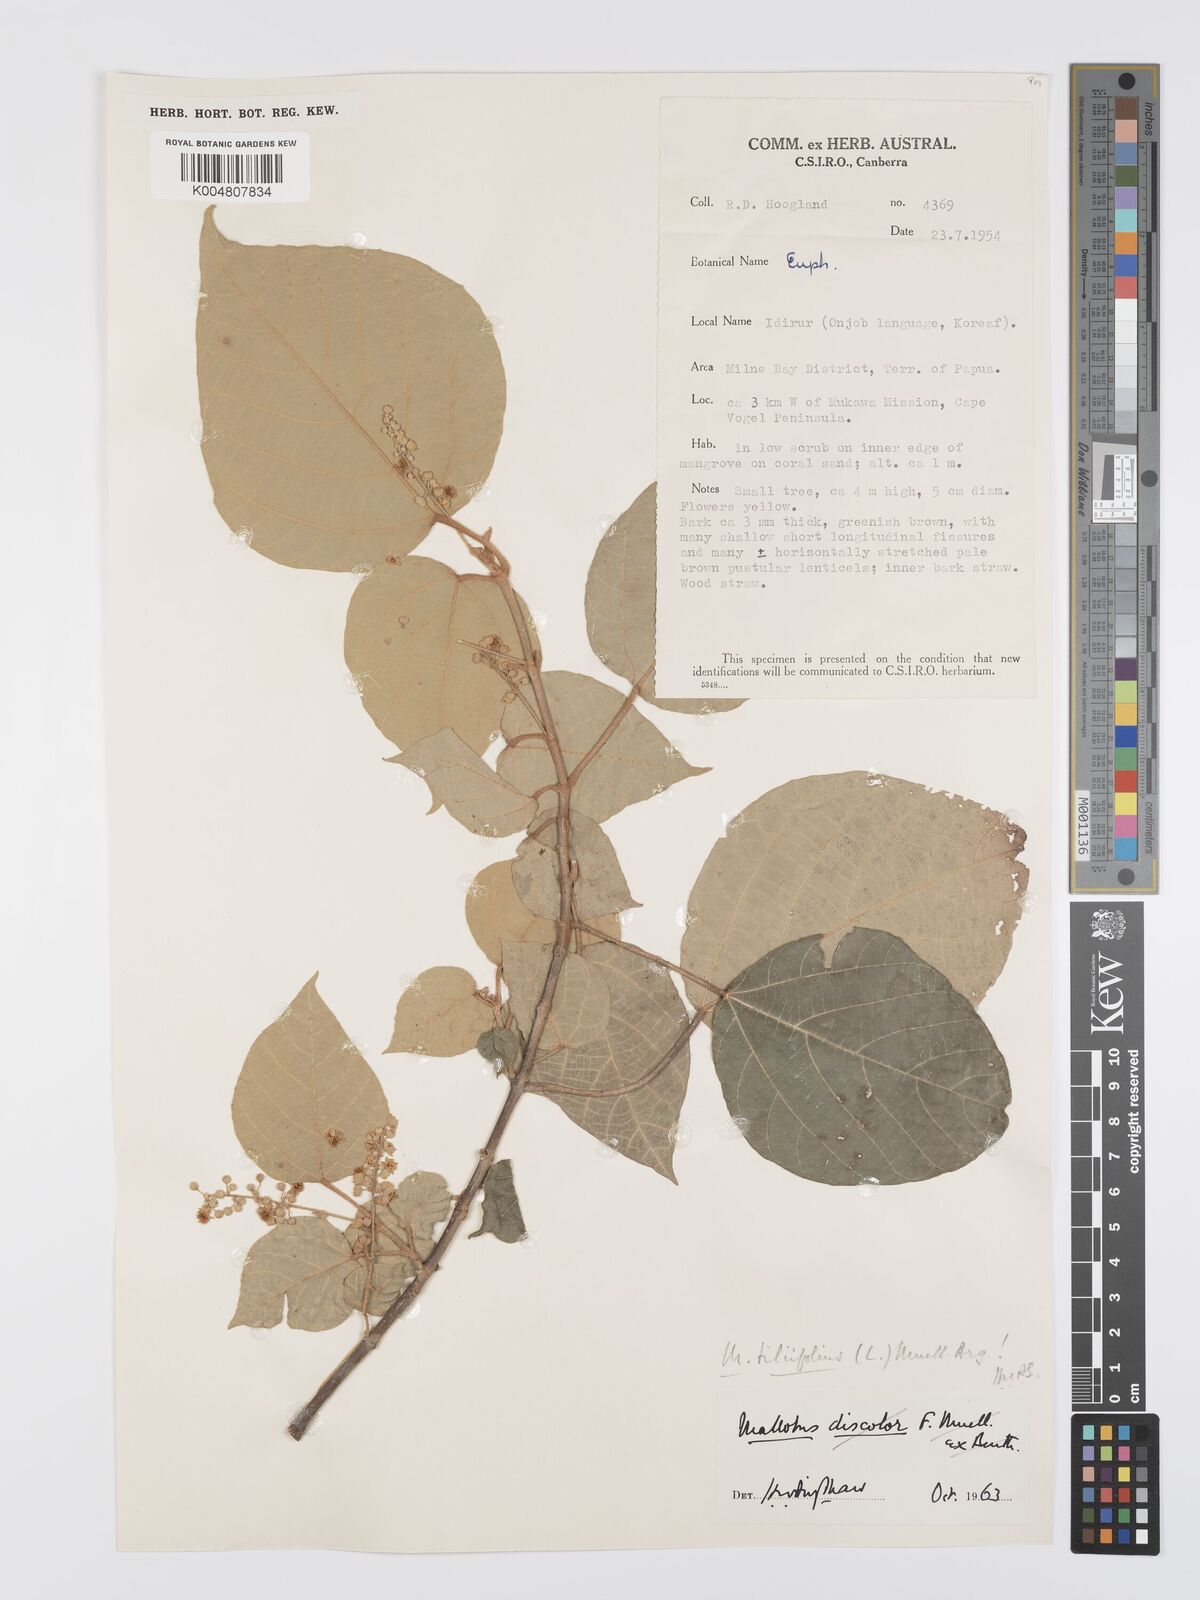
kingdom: Plantae
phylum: Tracheophyta
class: Magnoliopsida
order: Malpighiales
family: Euphorbiaceae
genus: Mallotus
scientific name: Mallotus tiliifolius
